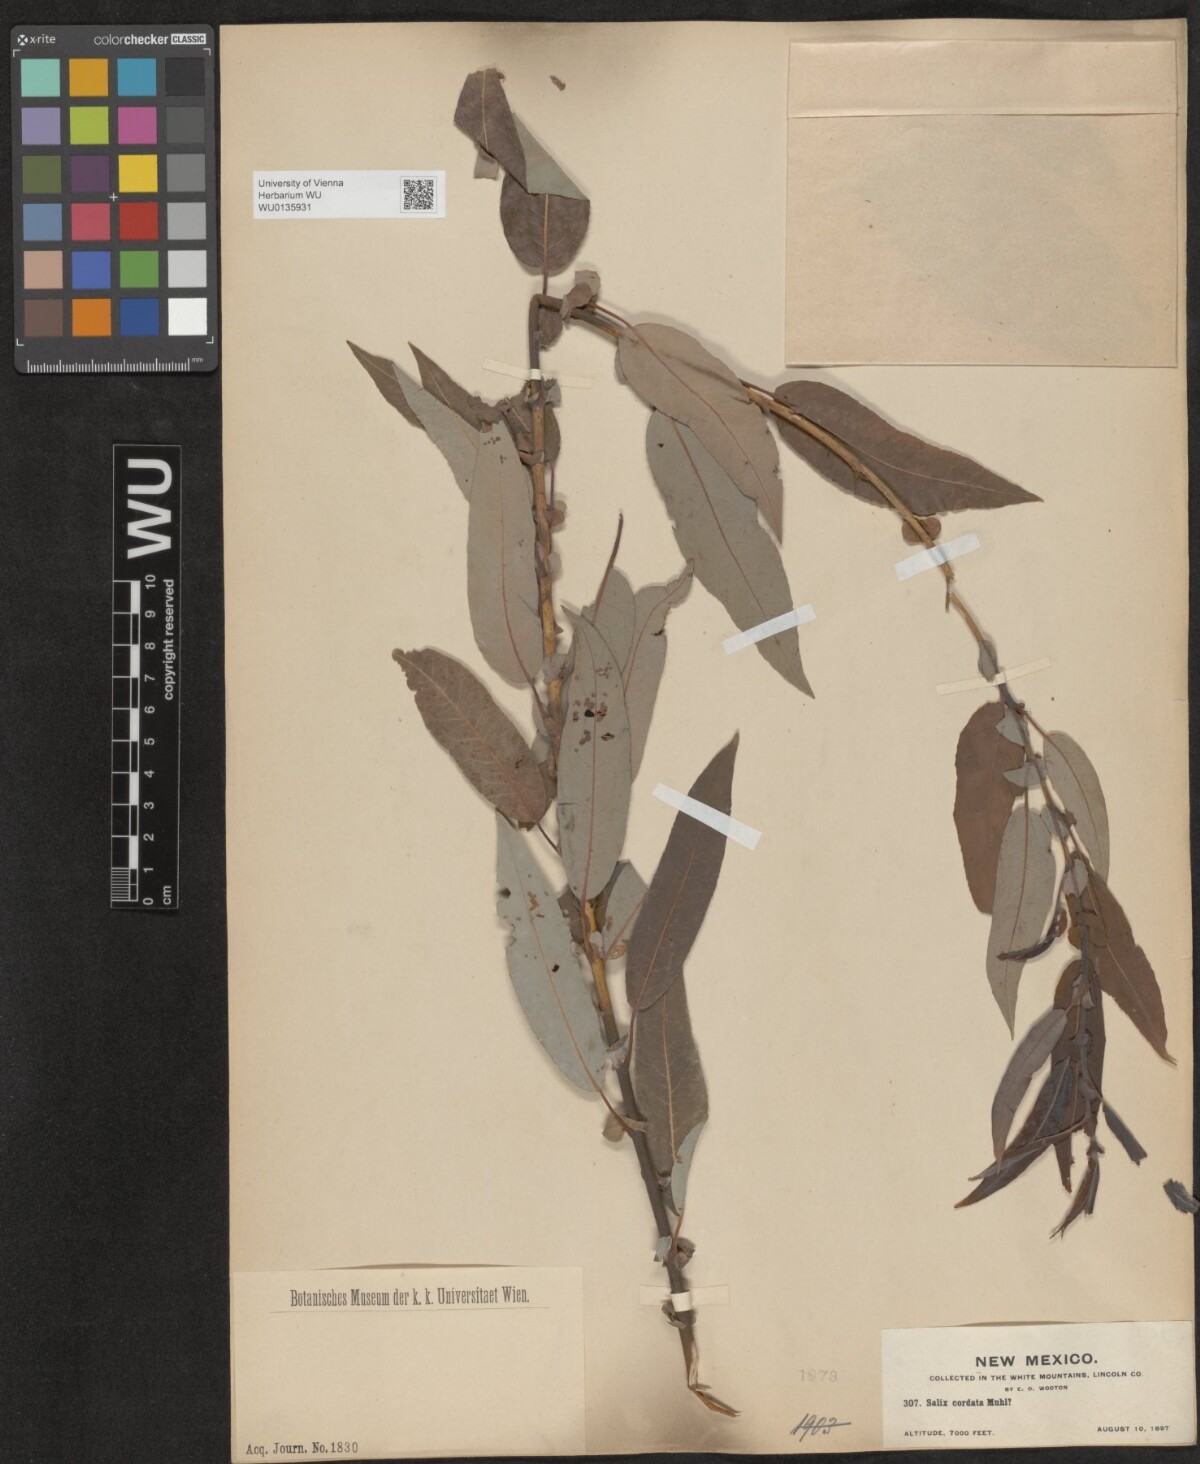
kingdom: Plantae
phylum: Tracheophyta
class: Magnoliopsida
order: Malpighiales
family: Salicaceae
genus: Salix
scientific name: Salix cordata
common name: Heart-leaf willow
